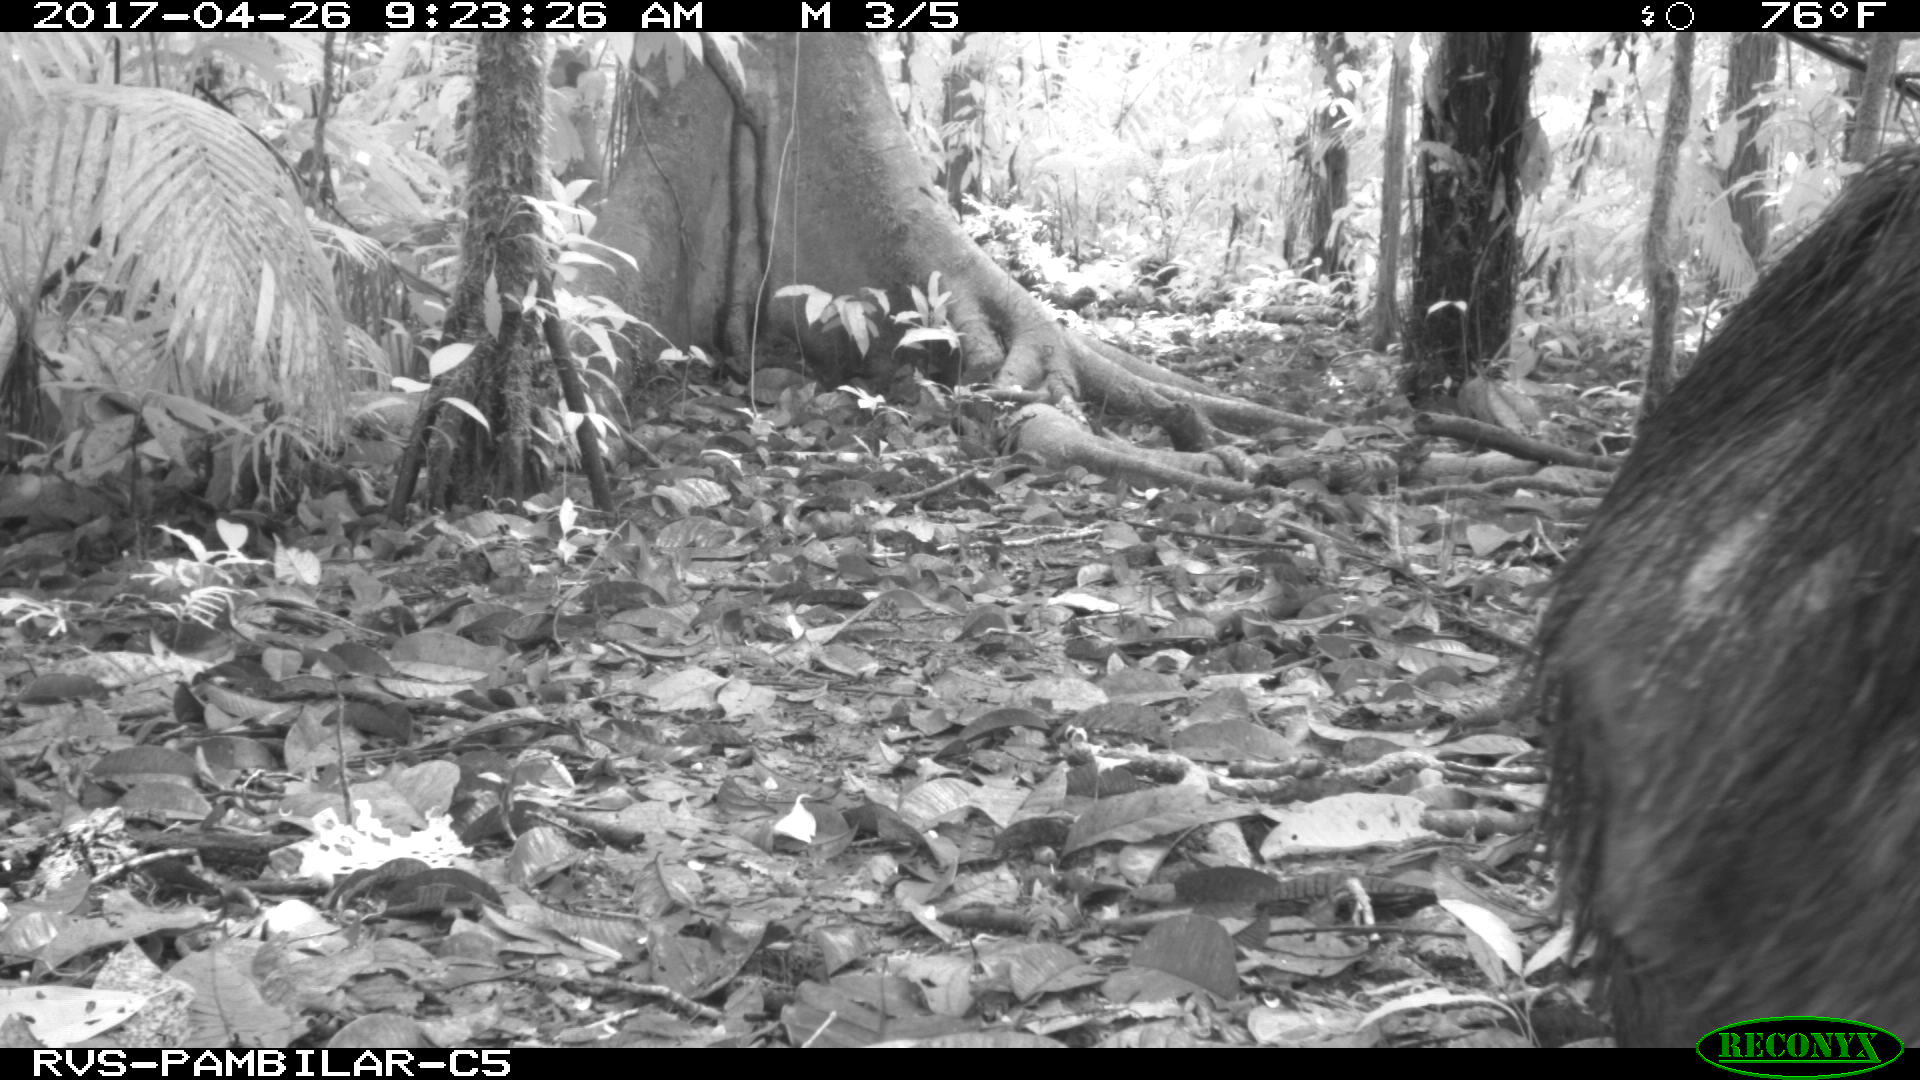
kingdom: Animalia
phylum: Chordata
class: Mammalia
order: Artiodactyla
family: Tayassuidae
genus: Tayassu
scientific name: Tayassu pecari
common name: White-lipped peccary
